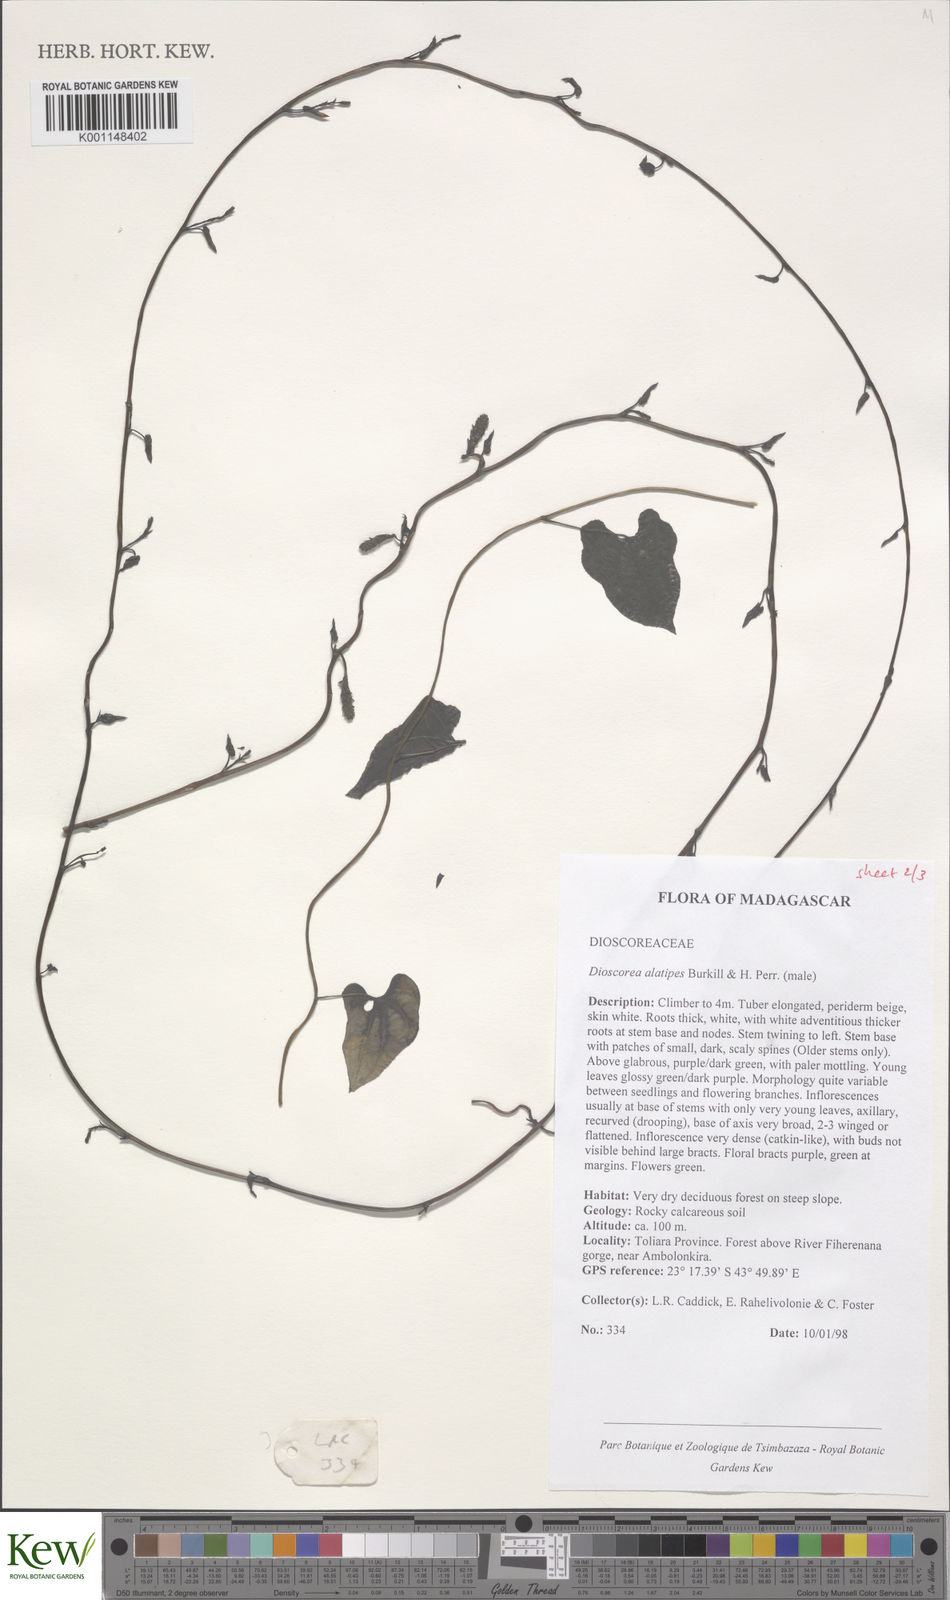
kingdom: Plantae
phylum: Tracheophyta
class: Liliopsida
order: Dioscoreales
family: Dioscoreaceae
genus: Dioscorea
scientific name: Dioscorea alatipes
